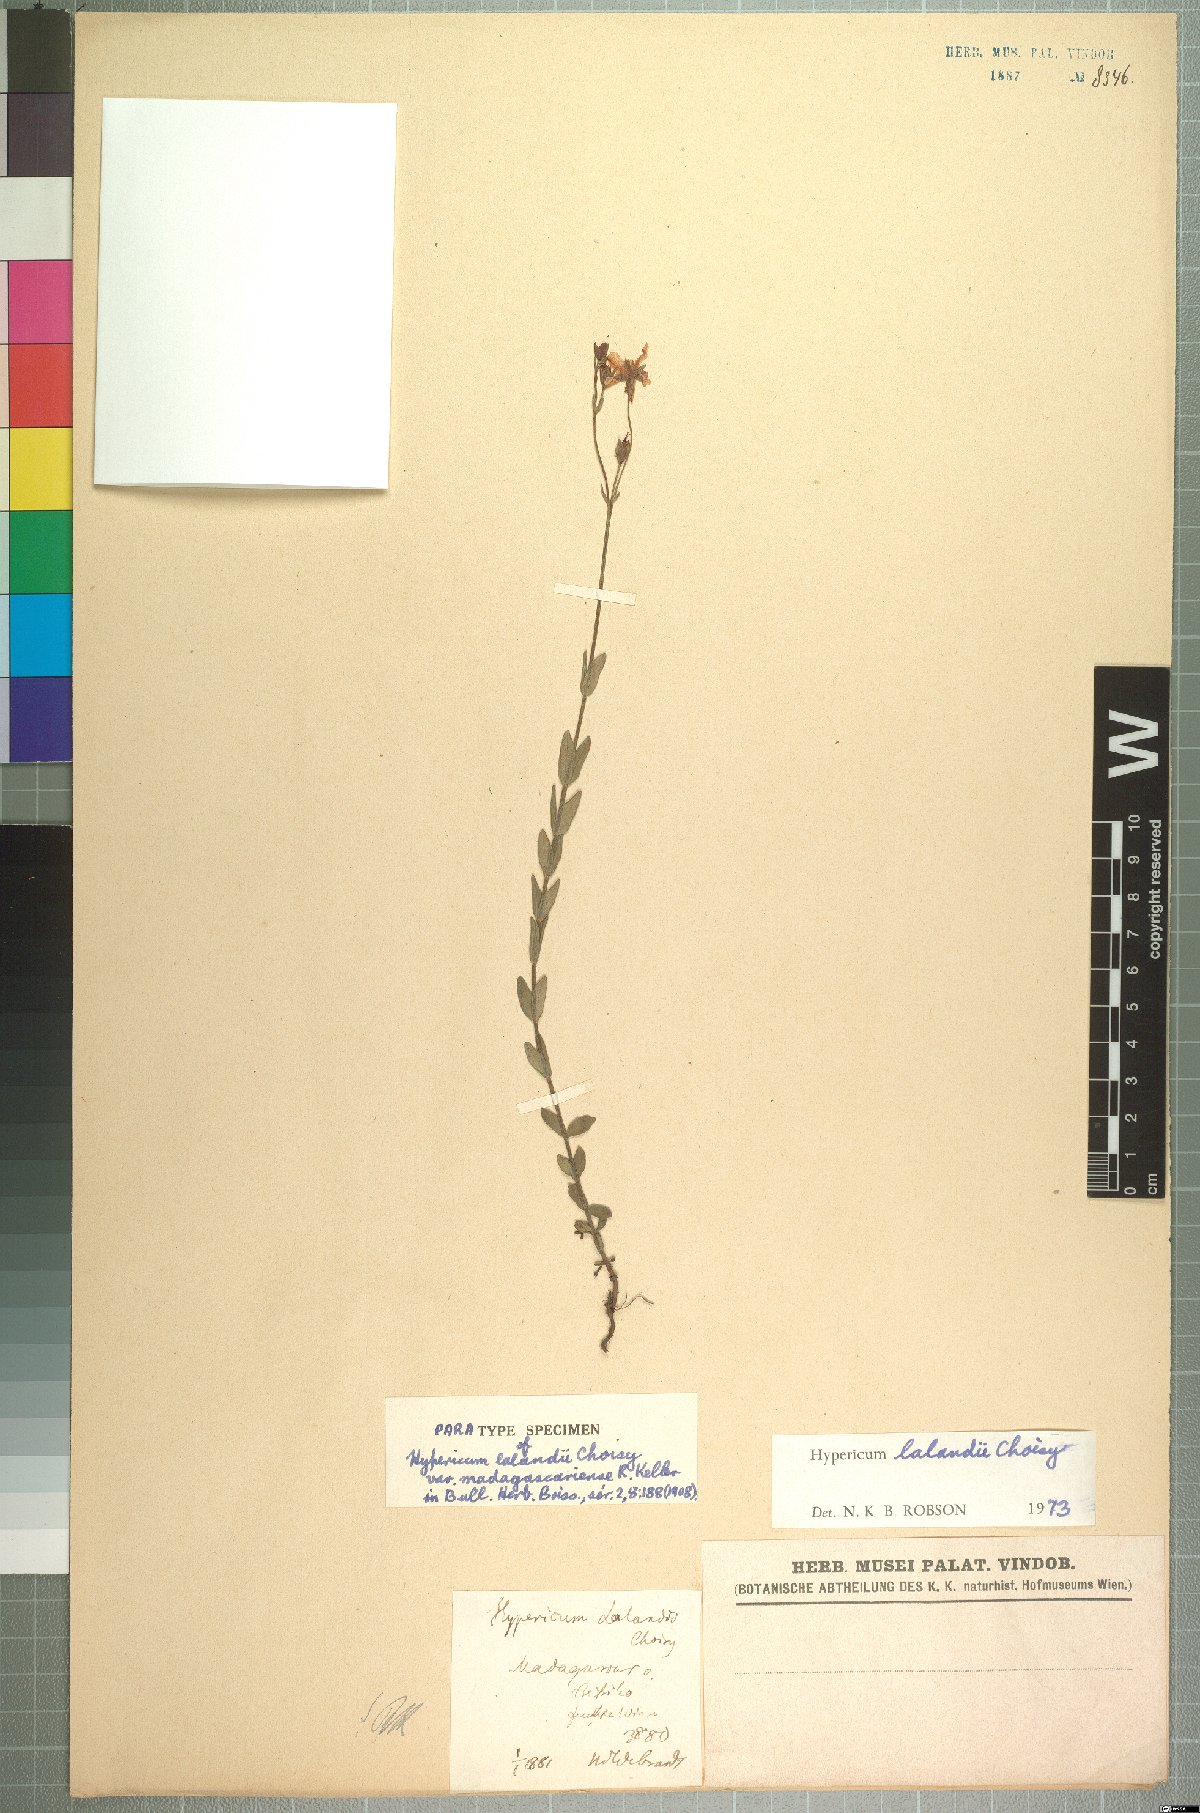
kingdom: Plantae
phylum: Tracheophyta
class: Magnoliopsida
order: Malpighiales
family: Hypericaceae
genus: Hypericum
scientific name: Hypericum lalandii
